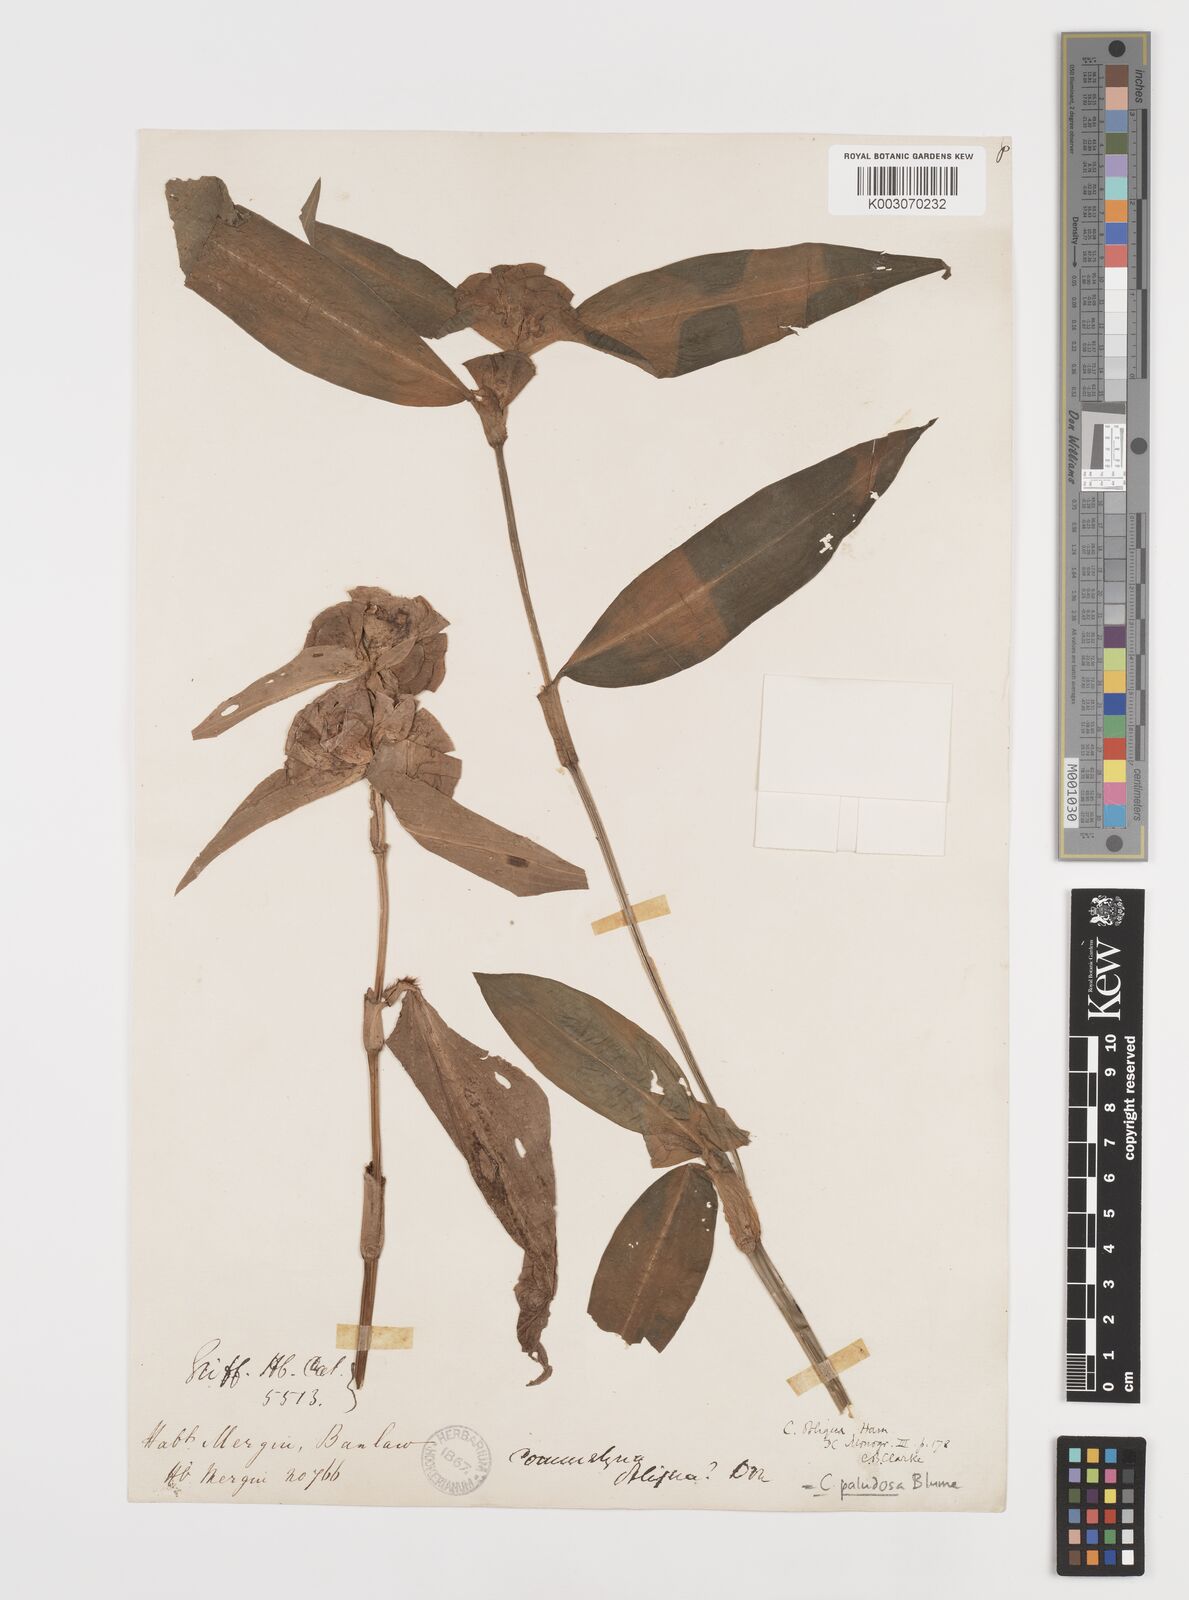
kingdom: Plantae
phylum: Tracheophyta
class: Liliopsida
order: Commelinales
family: Commelinaceae
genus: Commelina
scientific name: Commelina paludosa
